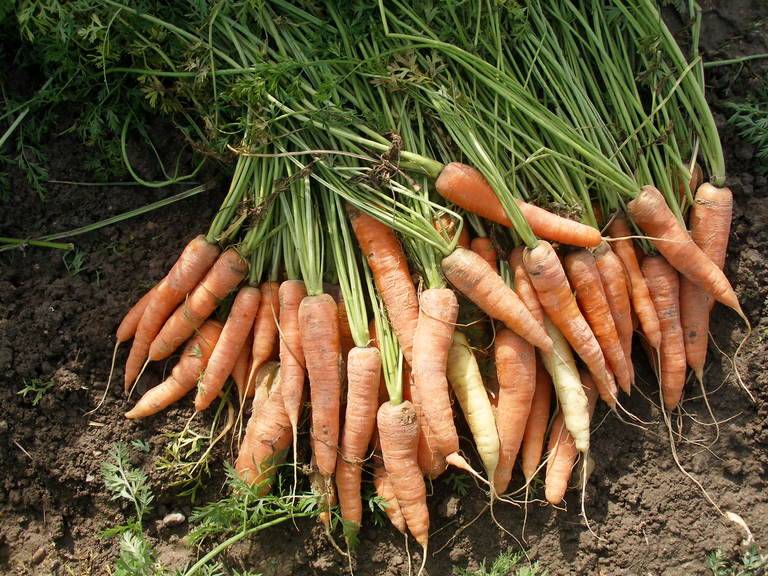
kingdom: Plantae
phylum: Tracheophyta
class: Magnoliopsida
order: Apiales
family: Apiaceae
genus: Daucus
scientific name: Daucus carota
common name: Wild carrot
